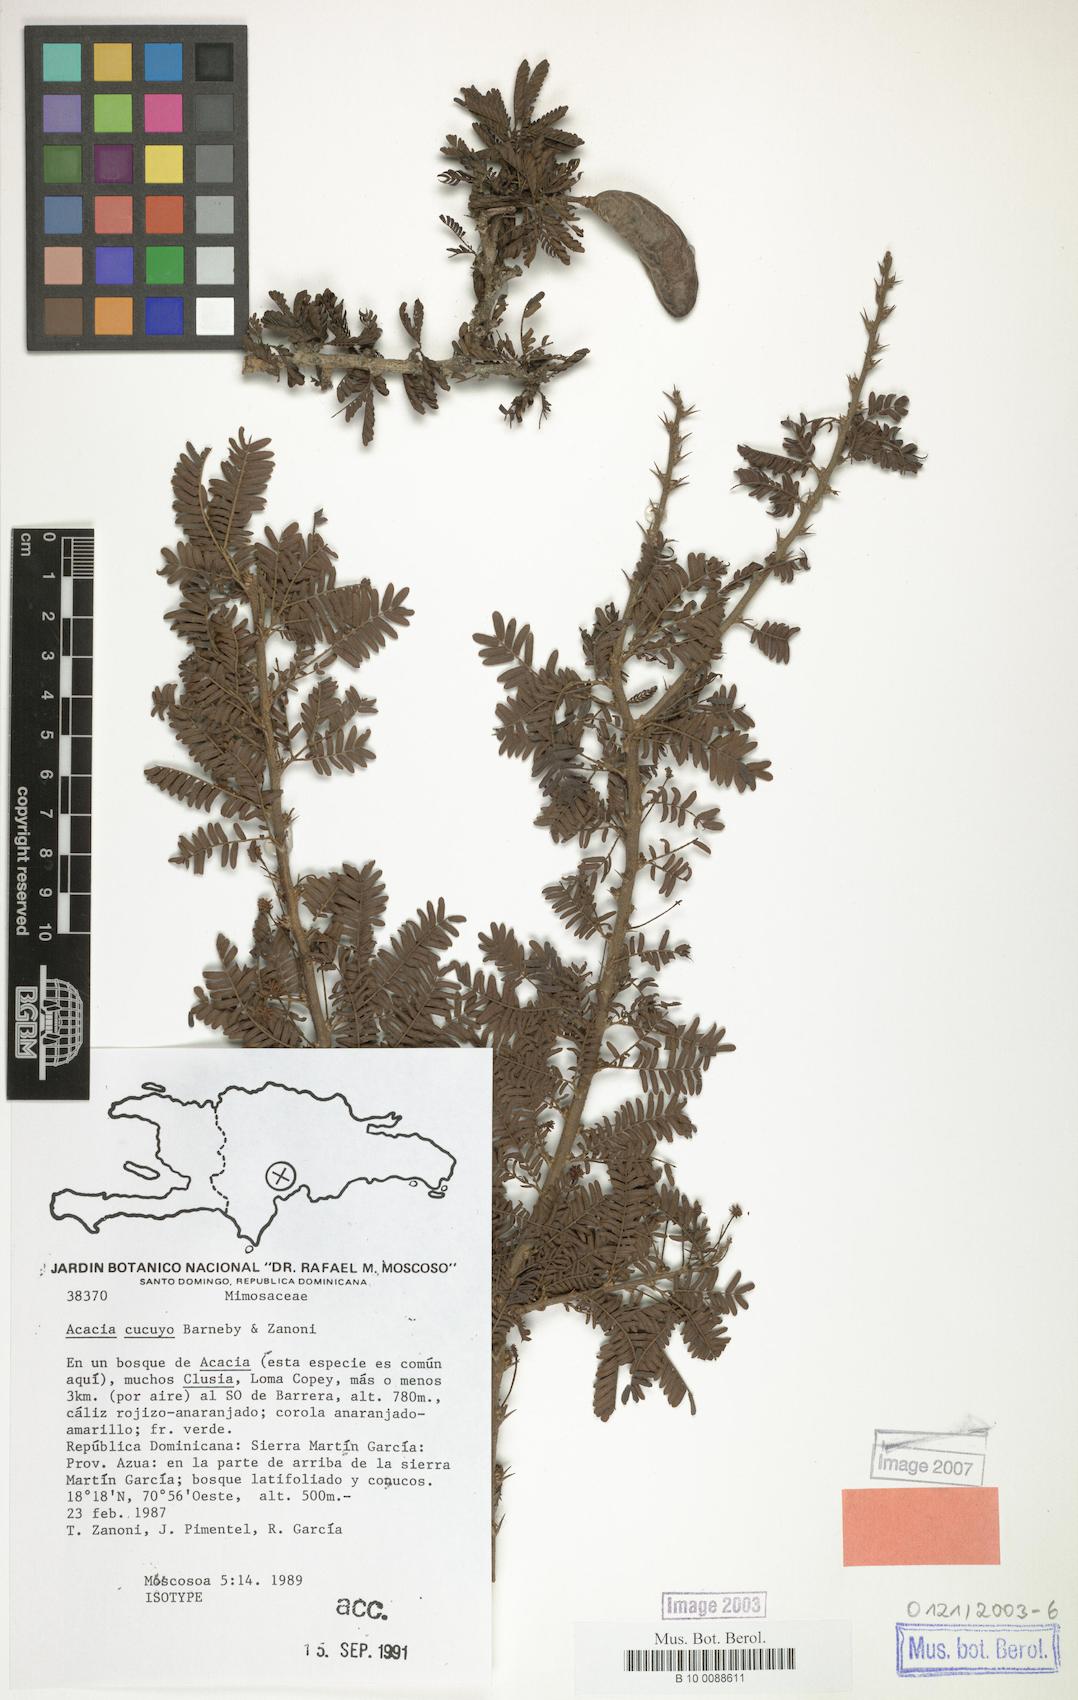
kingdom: Plantae
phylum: Tracheophyta
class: Magnoliopsida
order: Fabales
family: Fabaceae
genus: Vachellia
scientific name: Vachellia cucuyo
